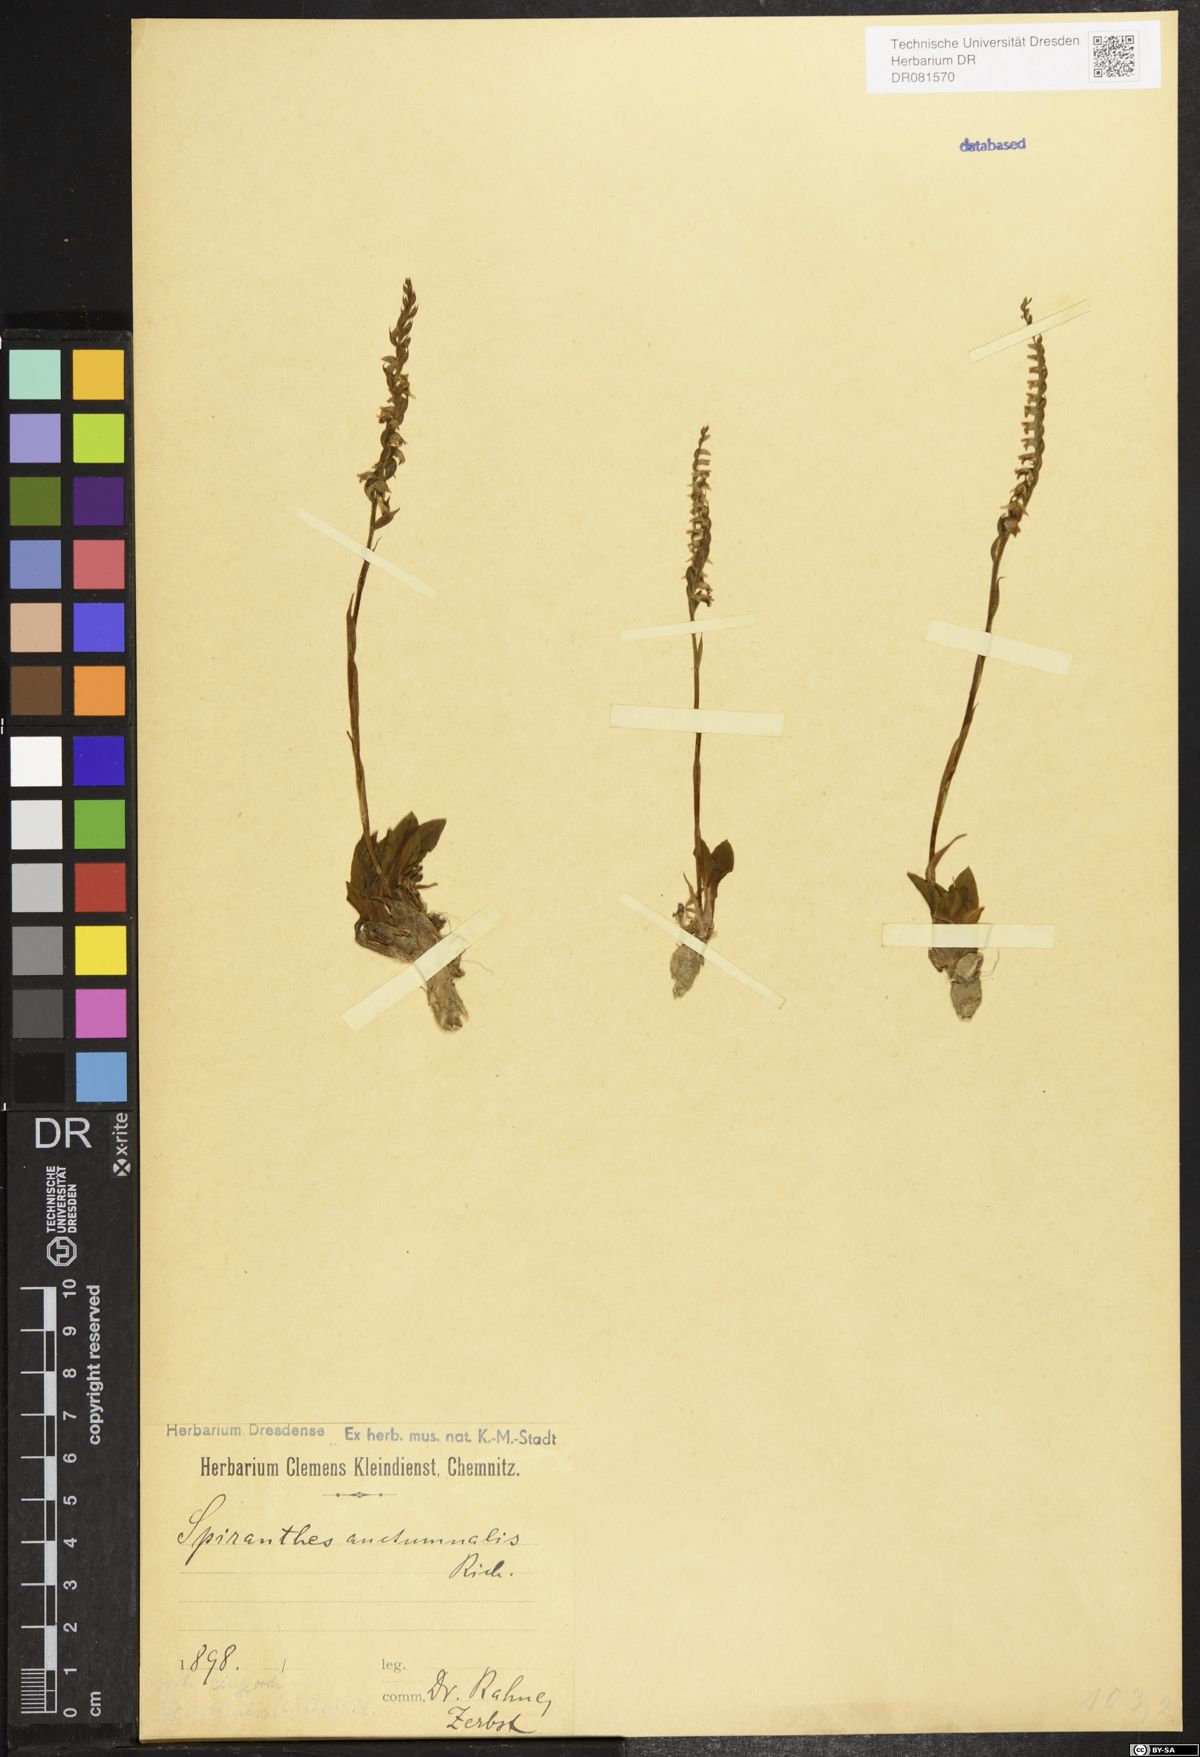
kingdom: Plantae
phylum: Tracheophyta
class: Liliopsida
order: Asparagales
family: Orchidaceae
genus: Spiranthes
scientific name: Spiranthes spiralis
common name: Autumn lady's-tresses
